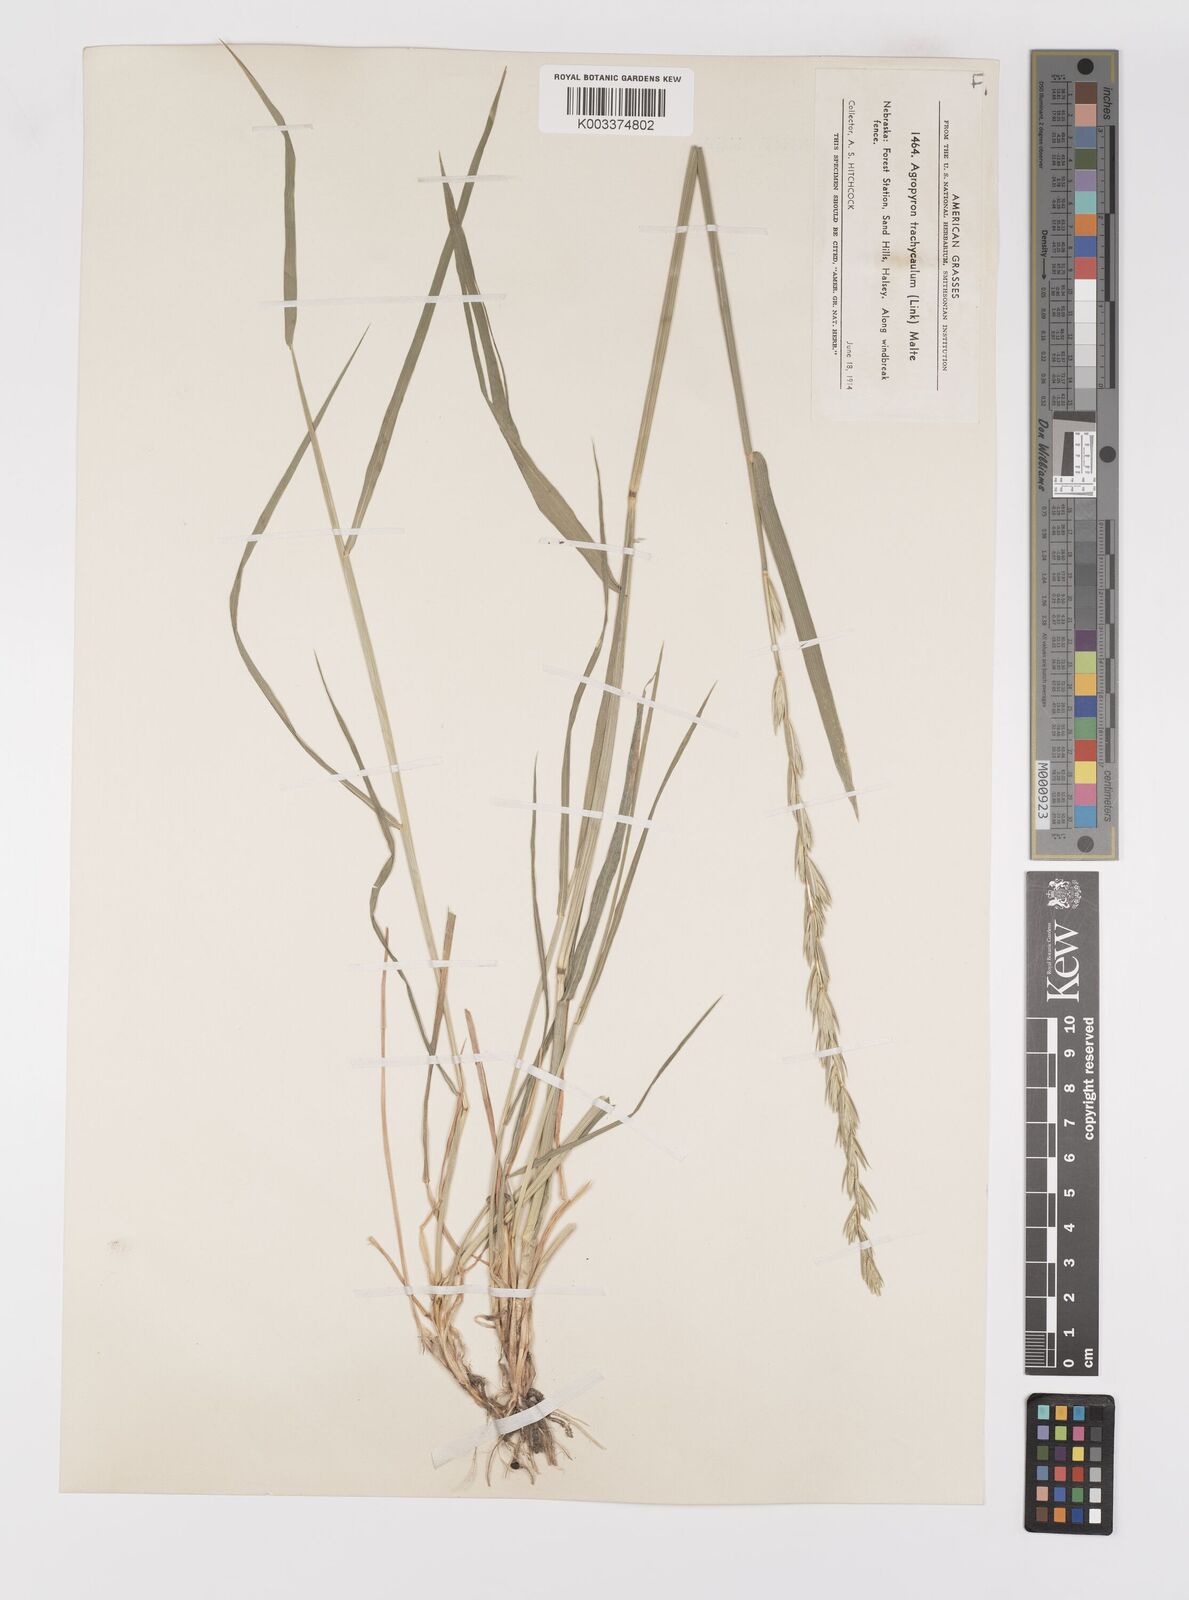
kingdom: Plantae
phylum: Tracheophyta
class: Liliopsida
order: Poales
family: Poaceae
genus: Elymus
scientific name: Elymus violaceus
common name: Arctic wheatgrass
